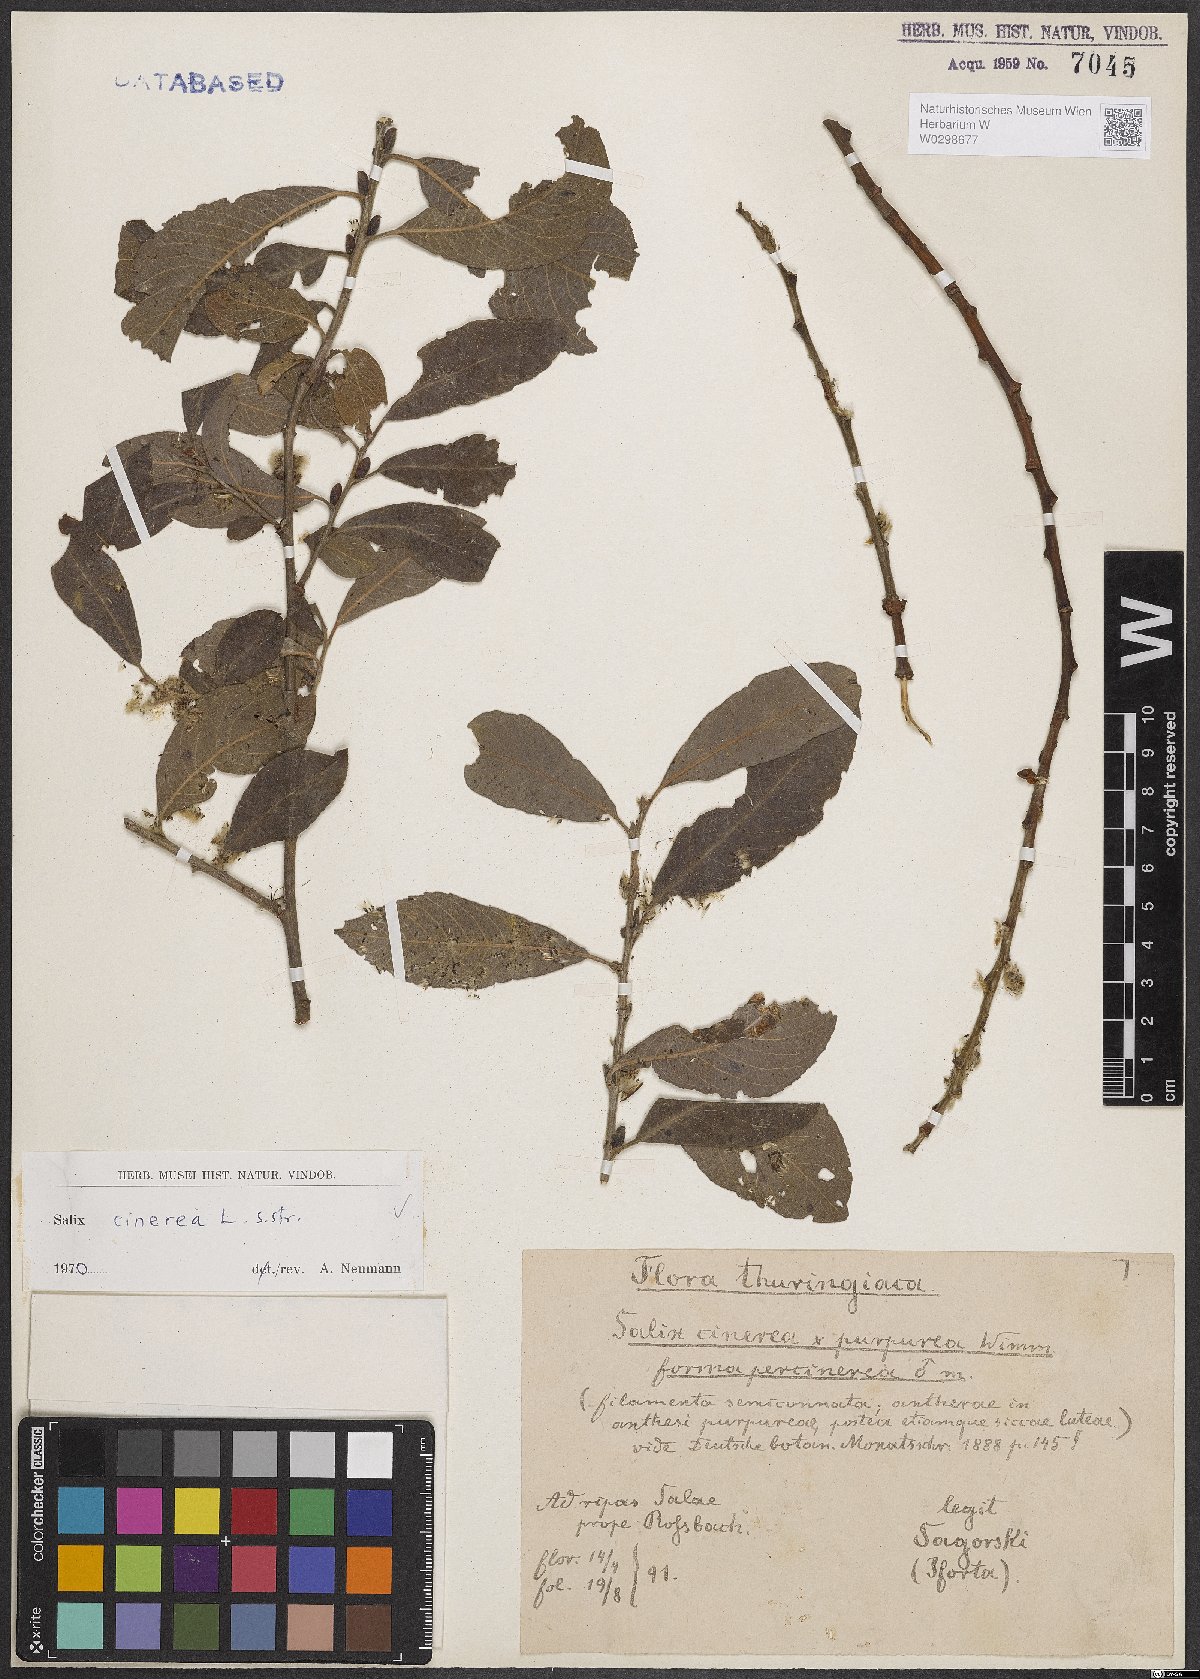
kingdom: Plantae
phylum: Tracheophyta
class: Magnoliopsida
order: Malpighiales
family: Salicaceae
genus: Salix
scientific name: Salix cinerea
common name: Common sallow
